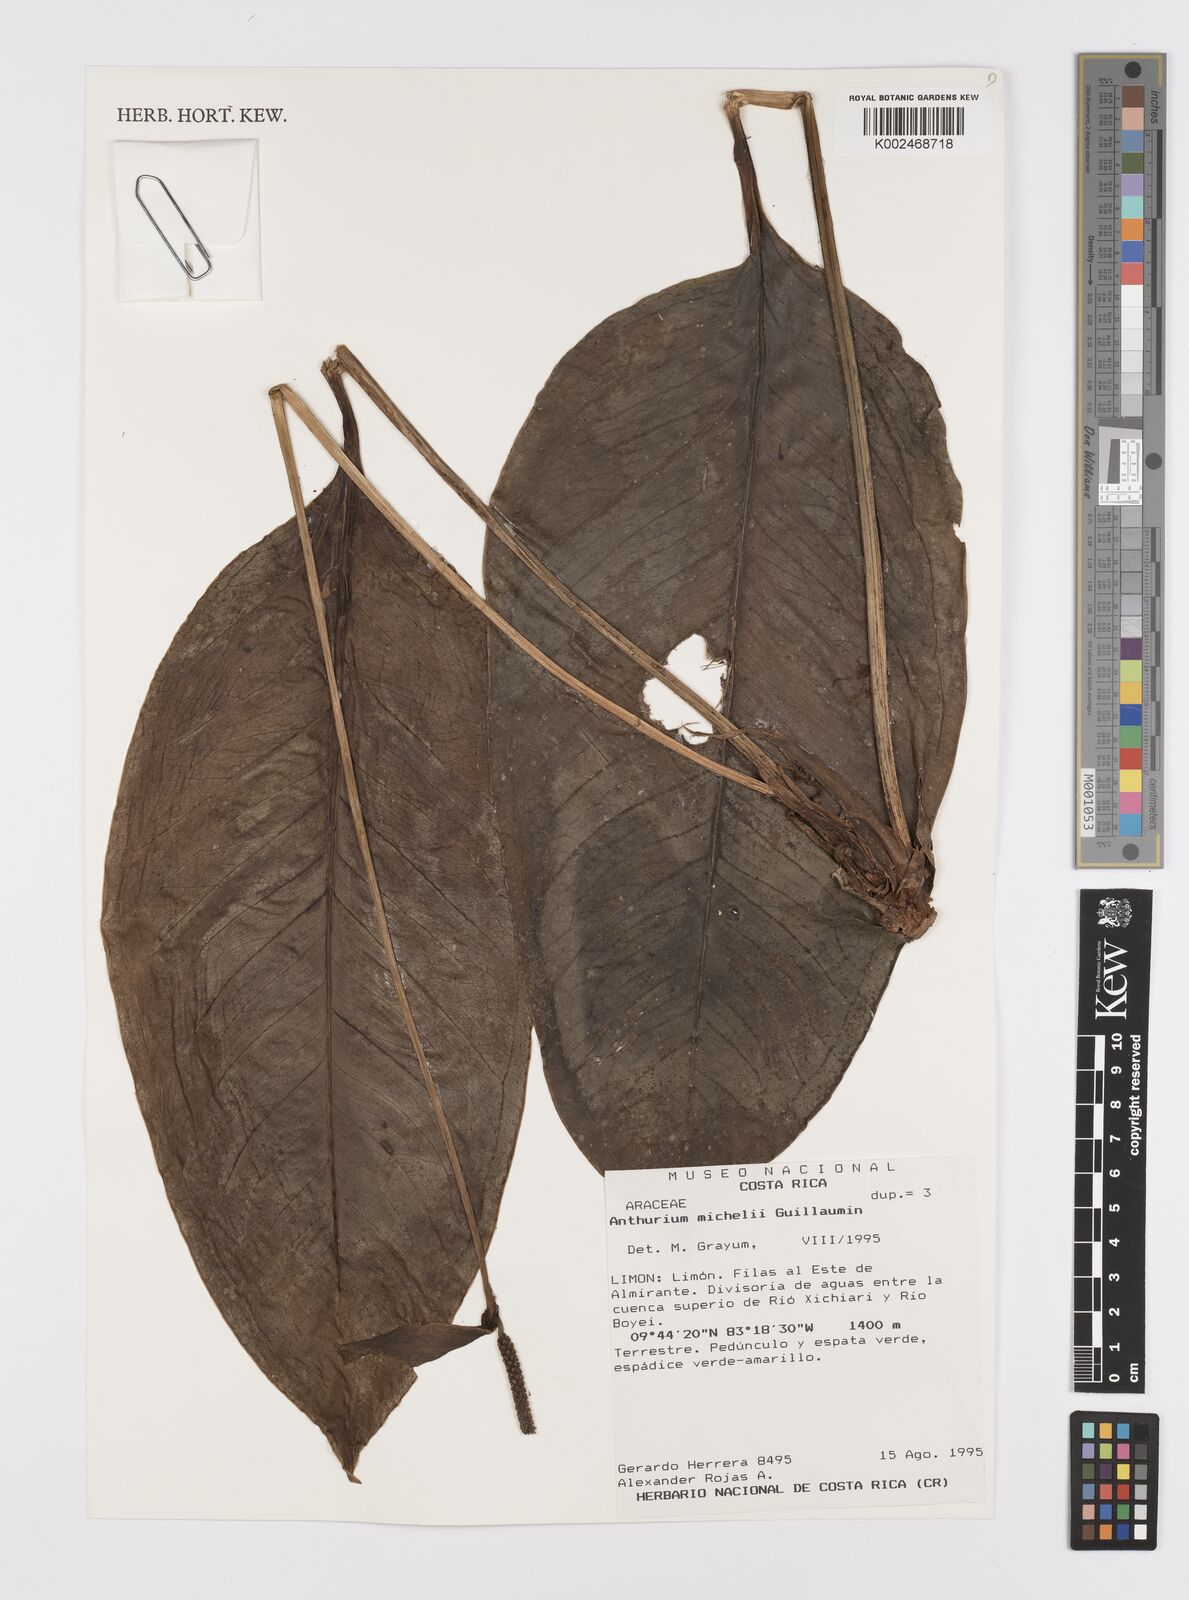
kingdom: Plantae
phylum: Tracheophyta
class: Liliopsida
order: Alismatales
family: Araceae
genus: Anthurium
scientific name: Anthurium michelii
